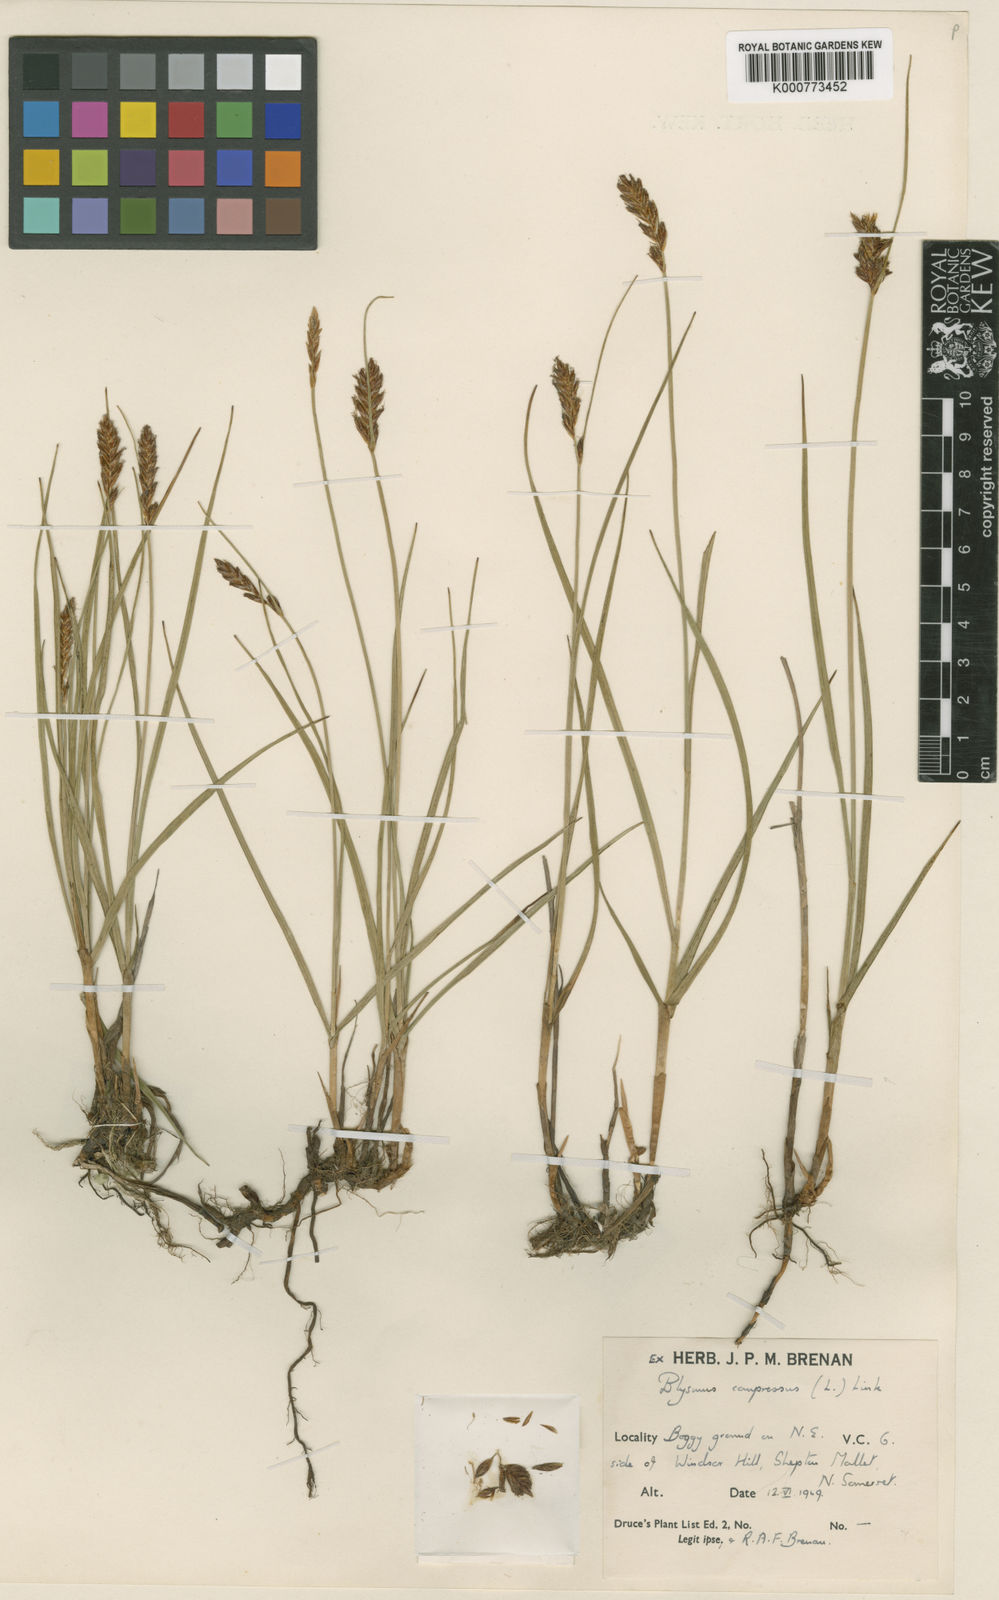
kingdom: Plantae
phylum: Tracheophyta
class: Liliopsida
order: Poales
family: Cyperaceae
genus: Blysmus
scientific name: Blysmus compressus
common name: Flat-sedge
